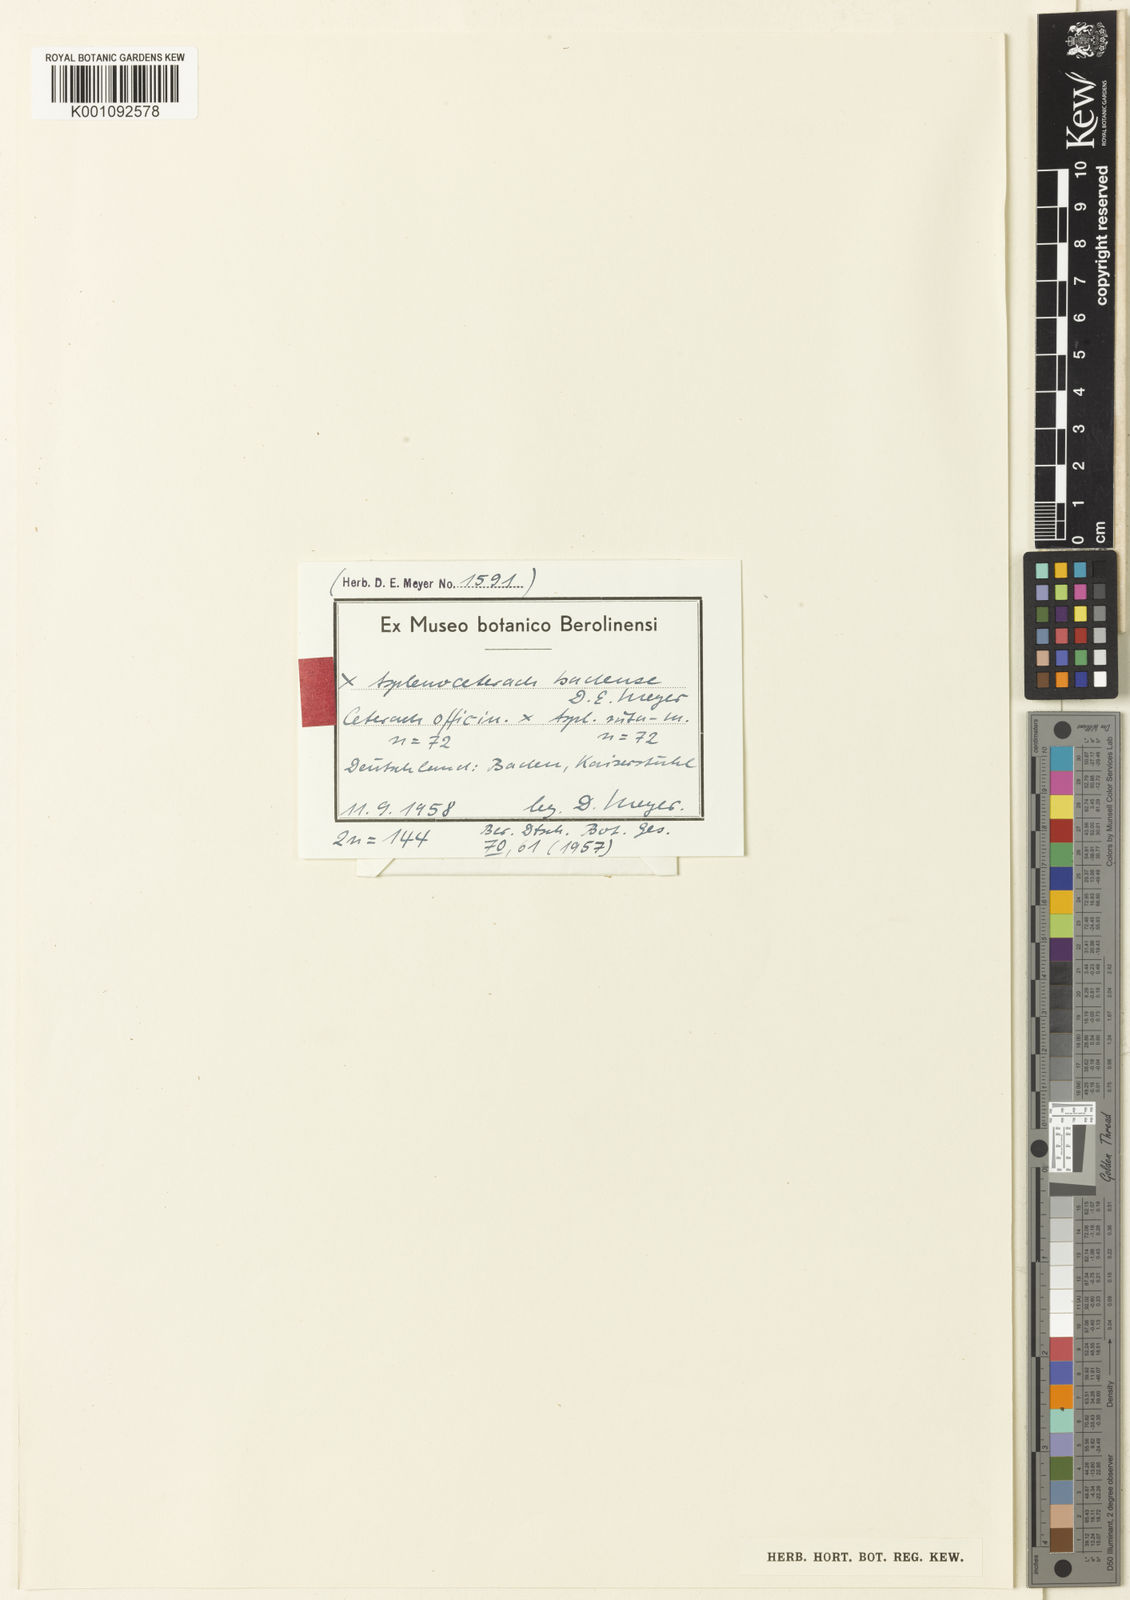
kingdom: Plantae
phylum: Tracheophyta
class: Polypodiopsida
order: Polypodiales
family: Aspleniaceae
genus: Asplenium
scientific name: Asplenium badense
